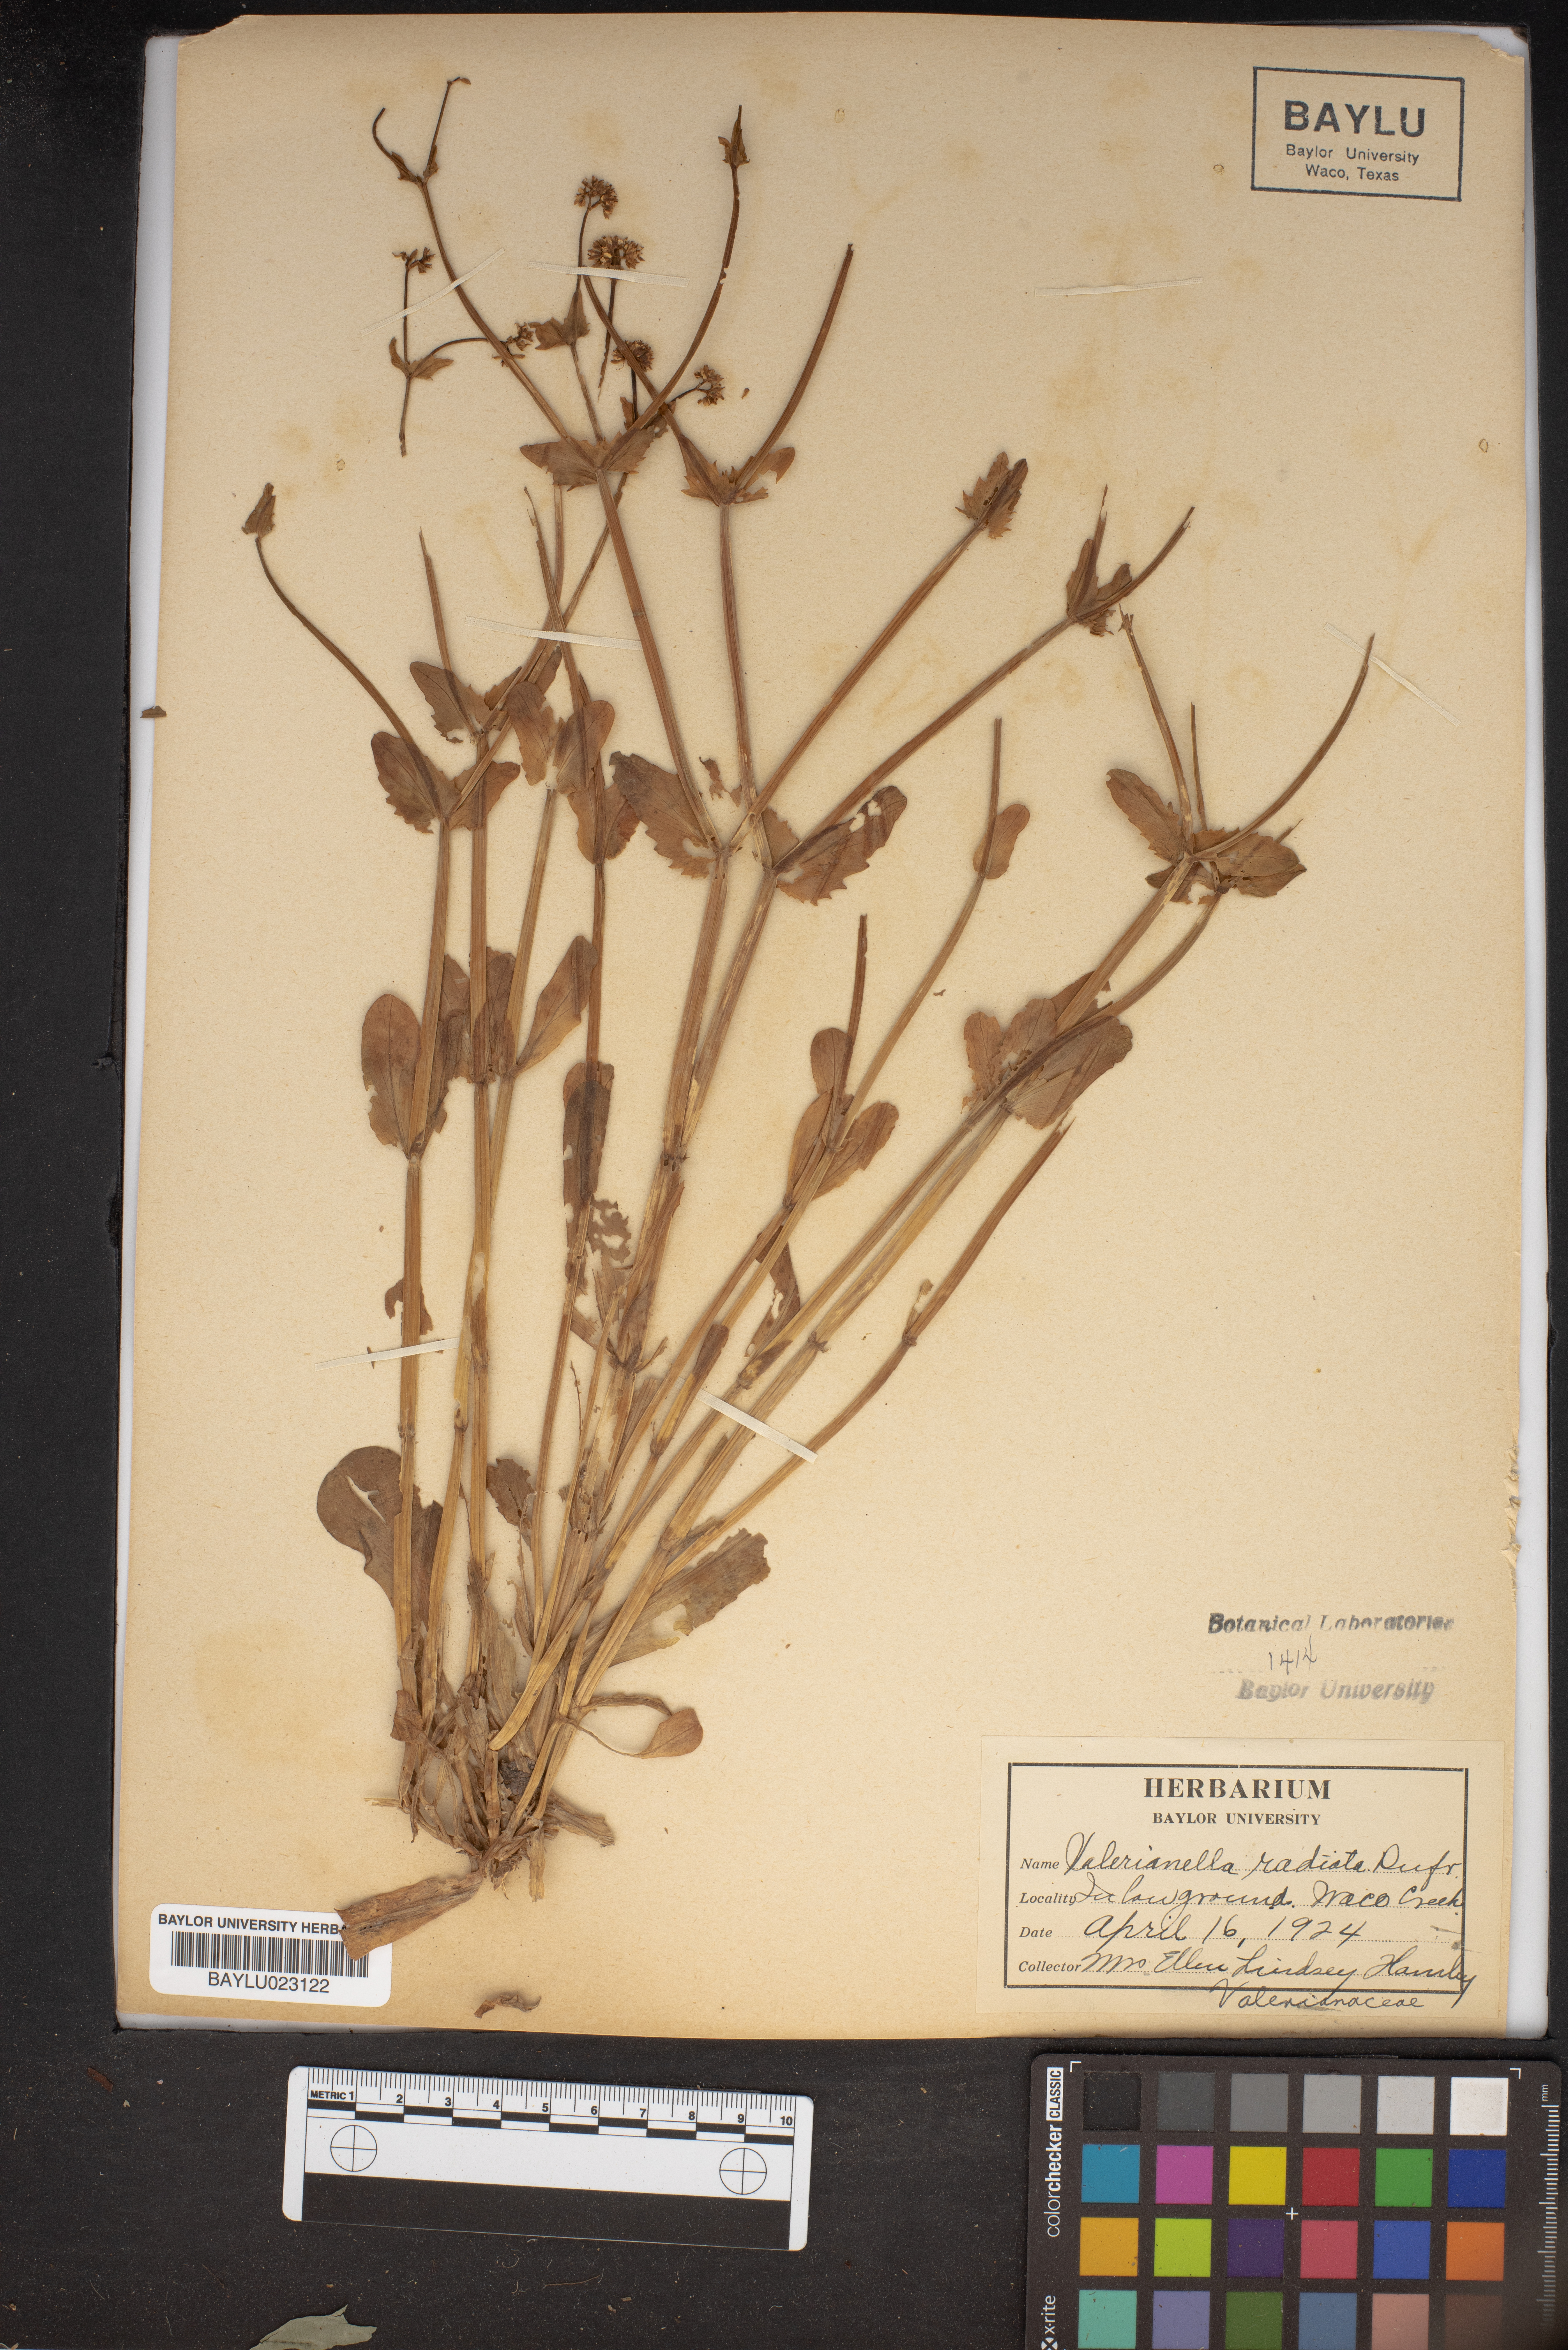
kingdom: Plantae
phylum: Tracheophyta
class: Magnoliopsida
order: Dipsacales
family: Caprifoliaceae
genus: Valerianella
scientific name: Valerianella radiata
